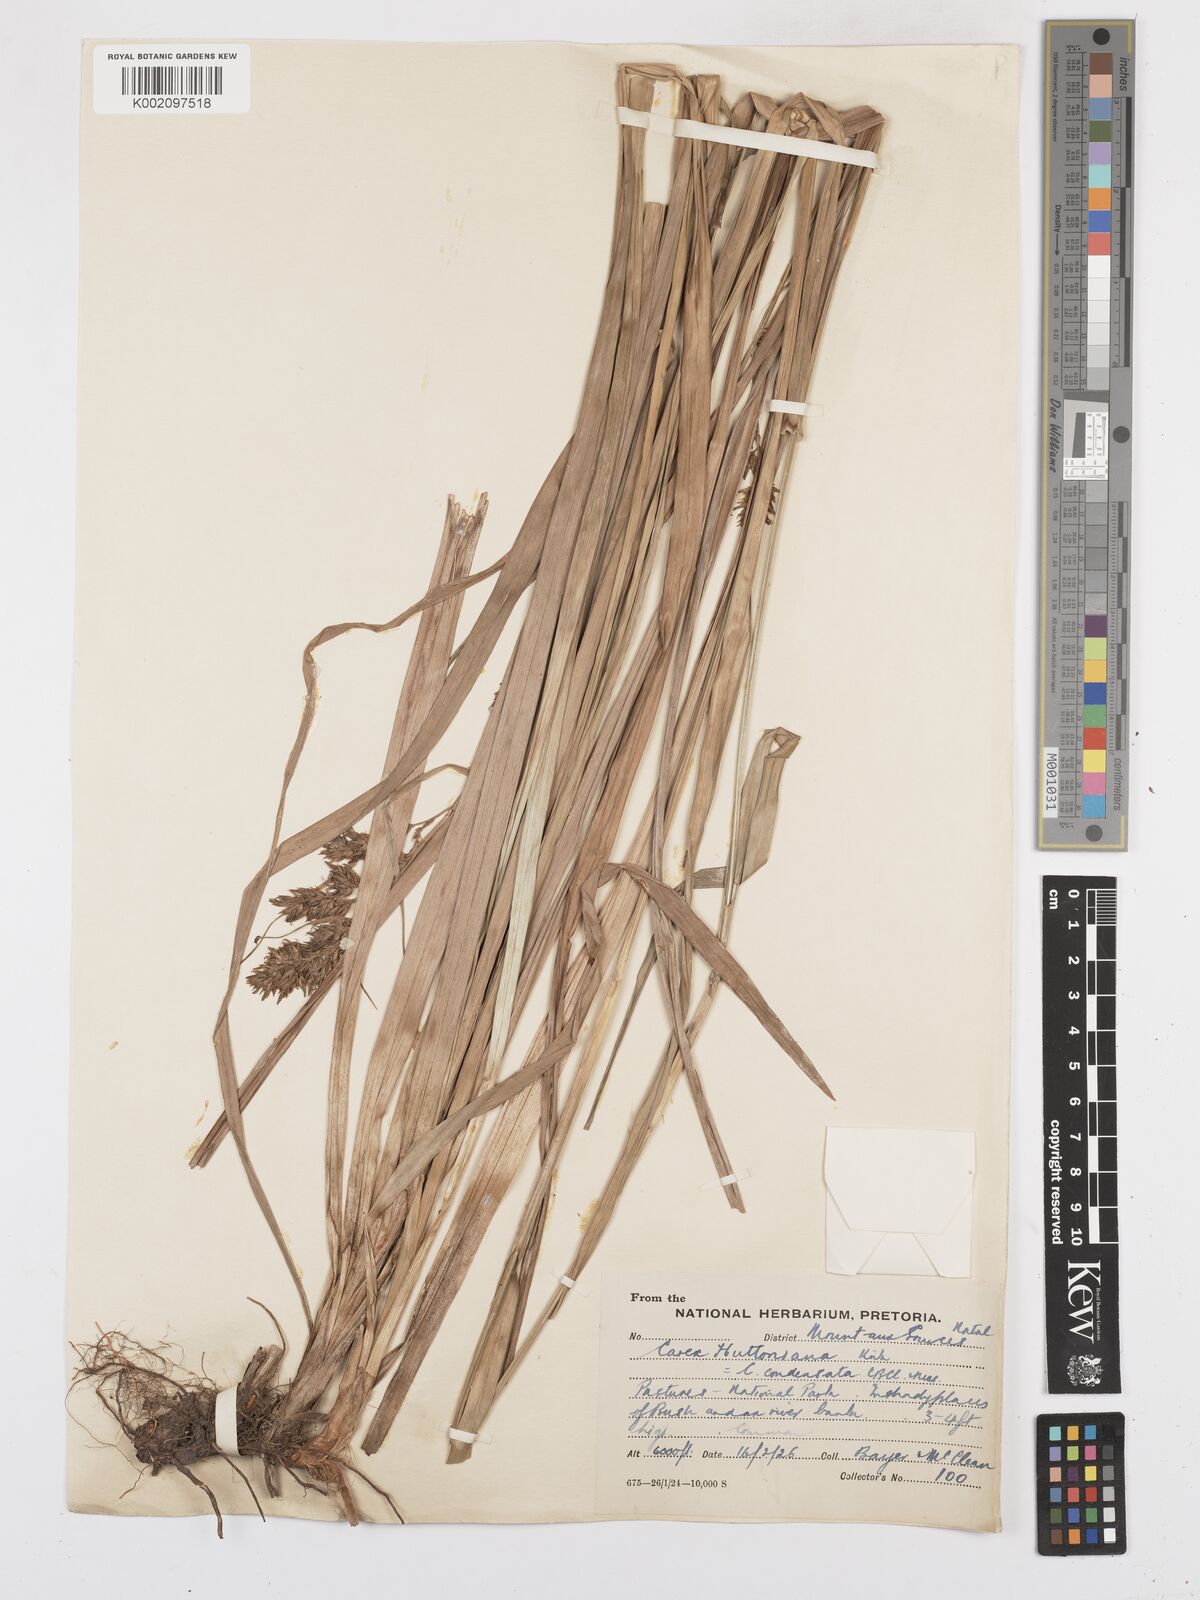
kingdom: Plantae
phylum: Tracheophyta
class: Liliopsida
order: Poales
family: Cyperaceae
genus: Carex
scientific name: Carex steudneri
